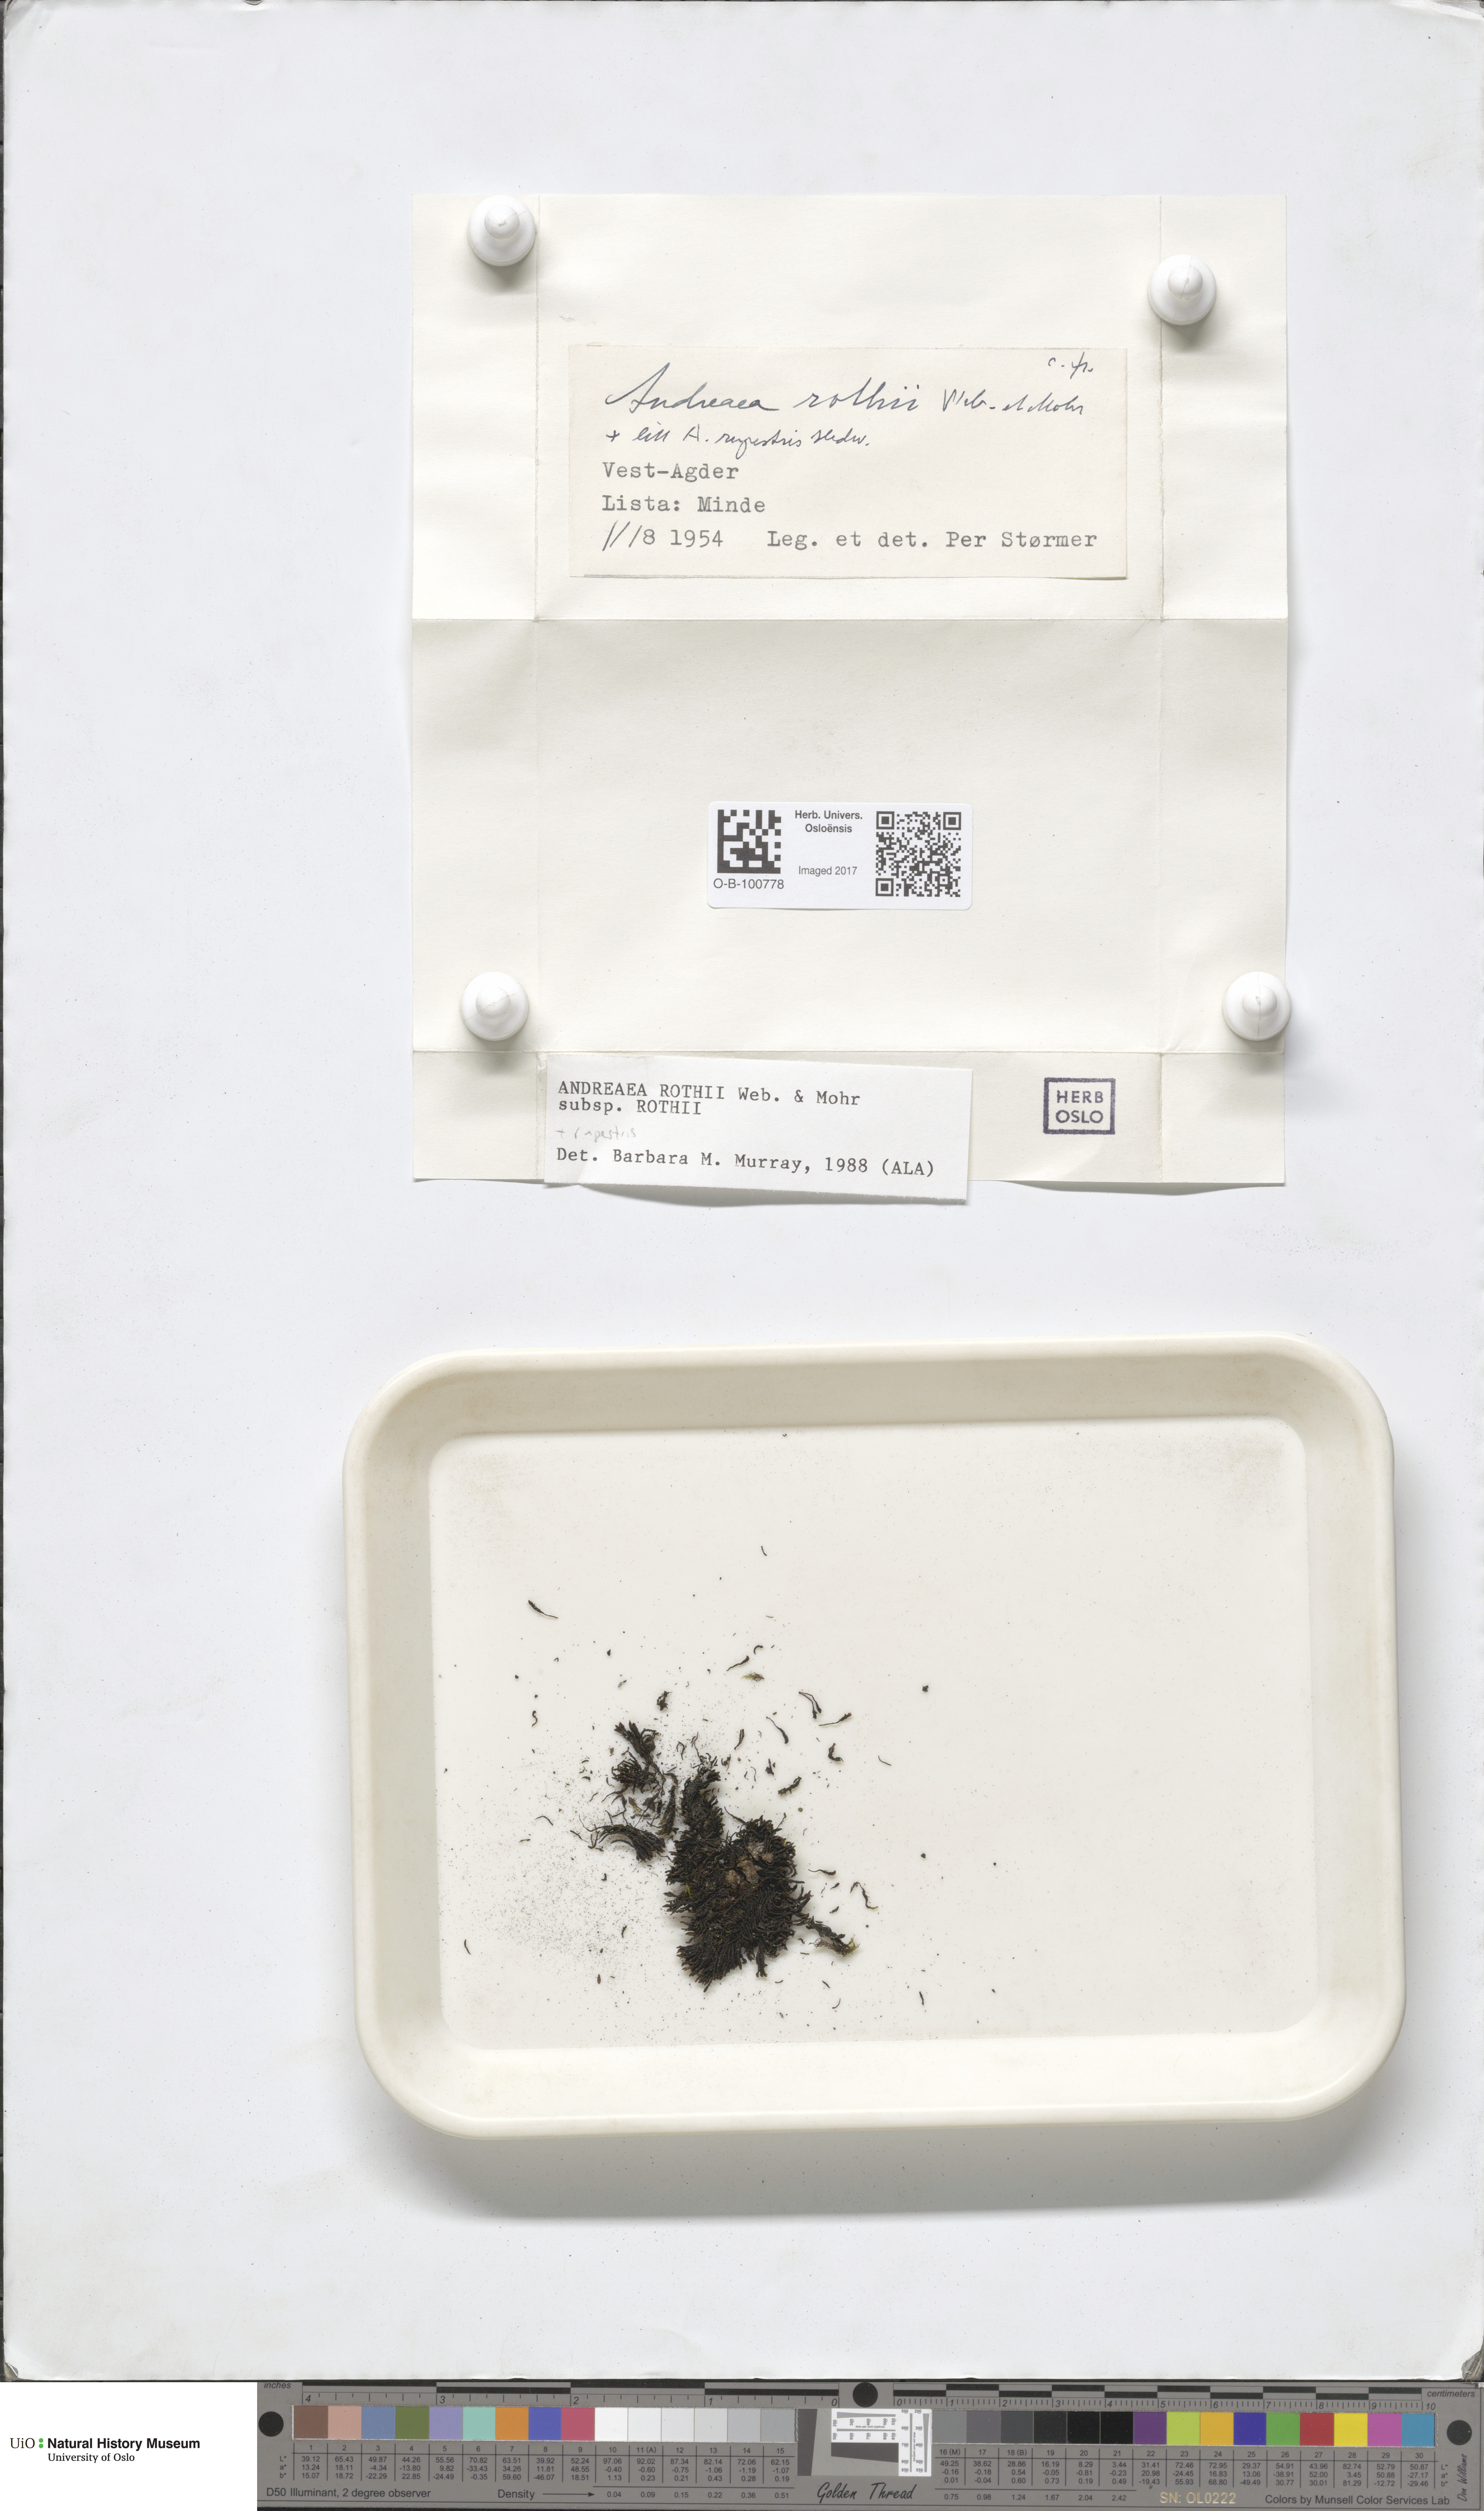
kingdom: Plantae
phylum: Bryophyta
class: Andreaeopsida
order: Andreaeales
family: Andreaeaceae
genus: Andreaea
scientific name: Andreaea rothii
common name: Dusky rock moss
